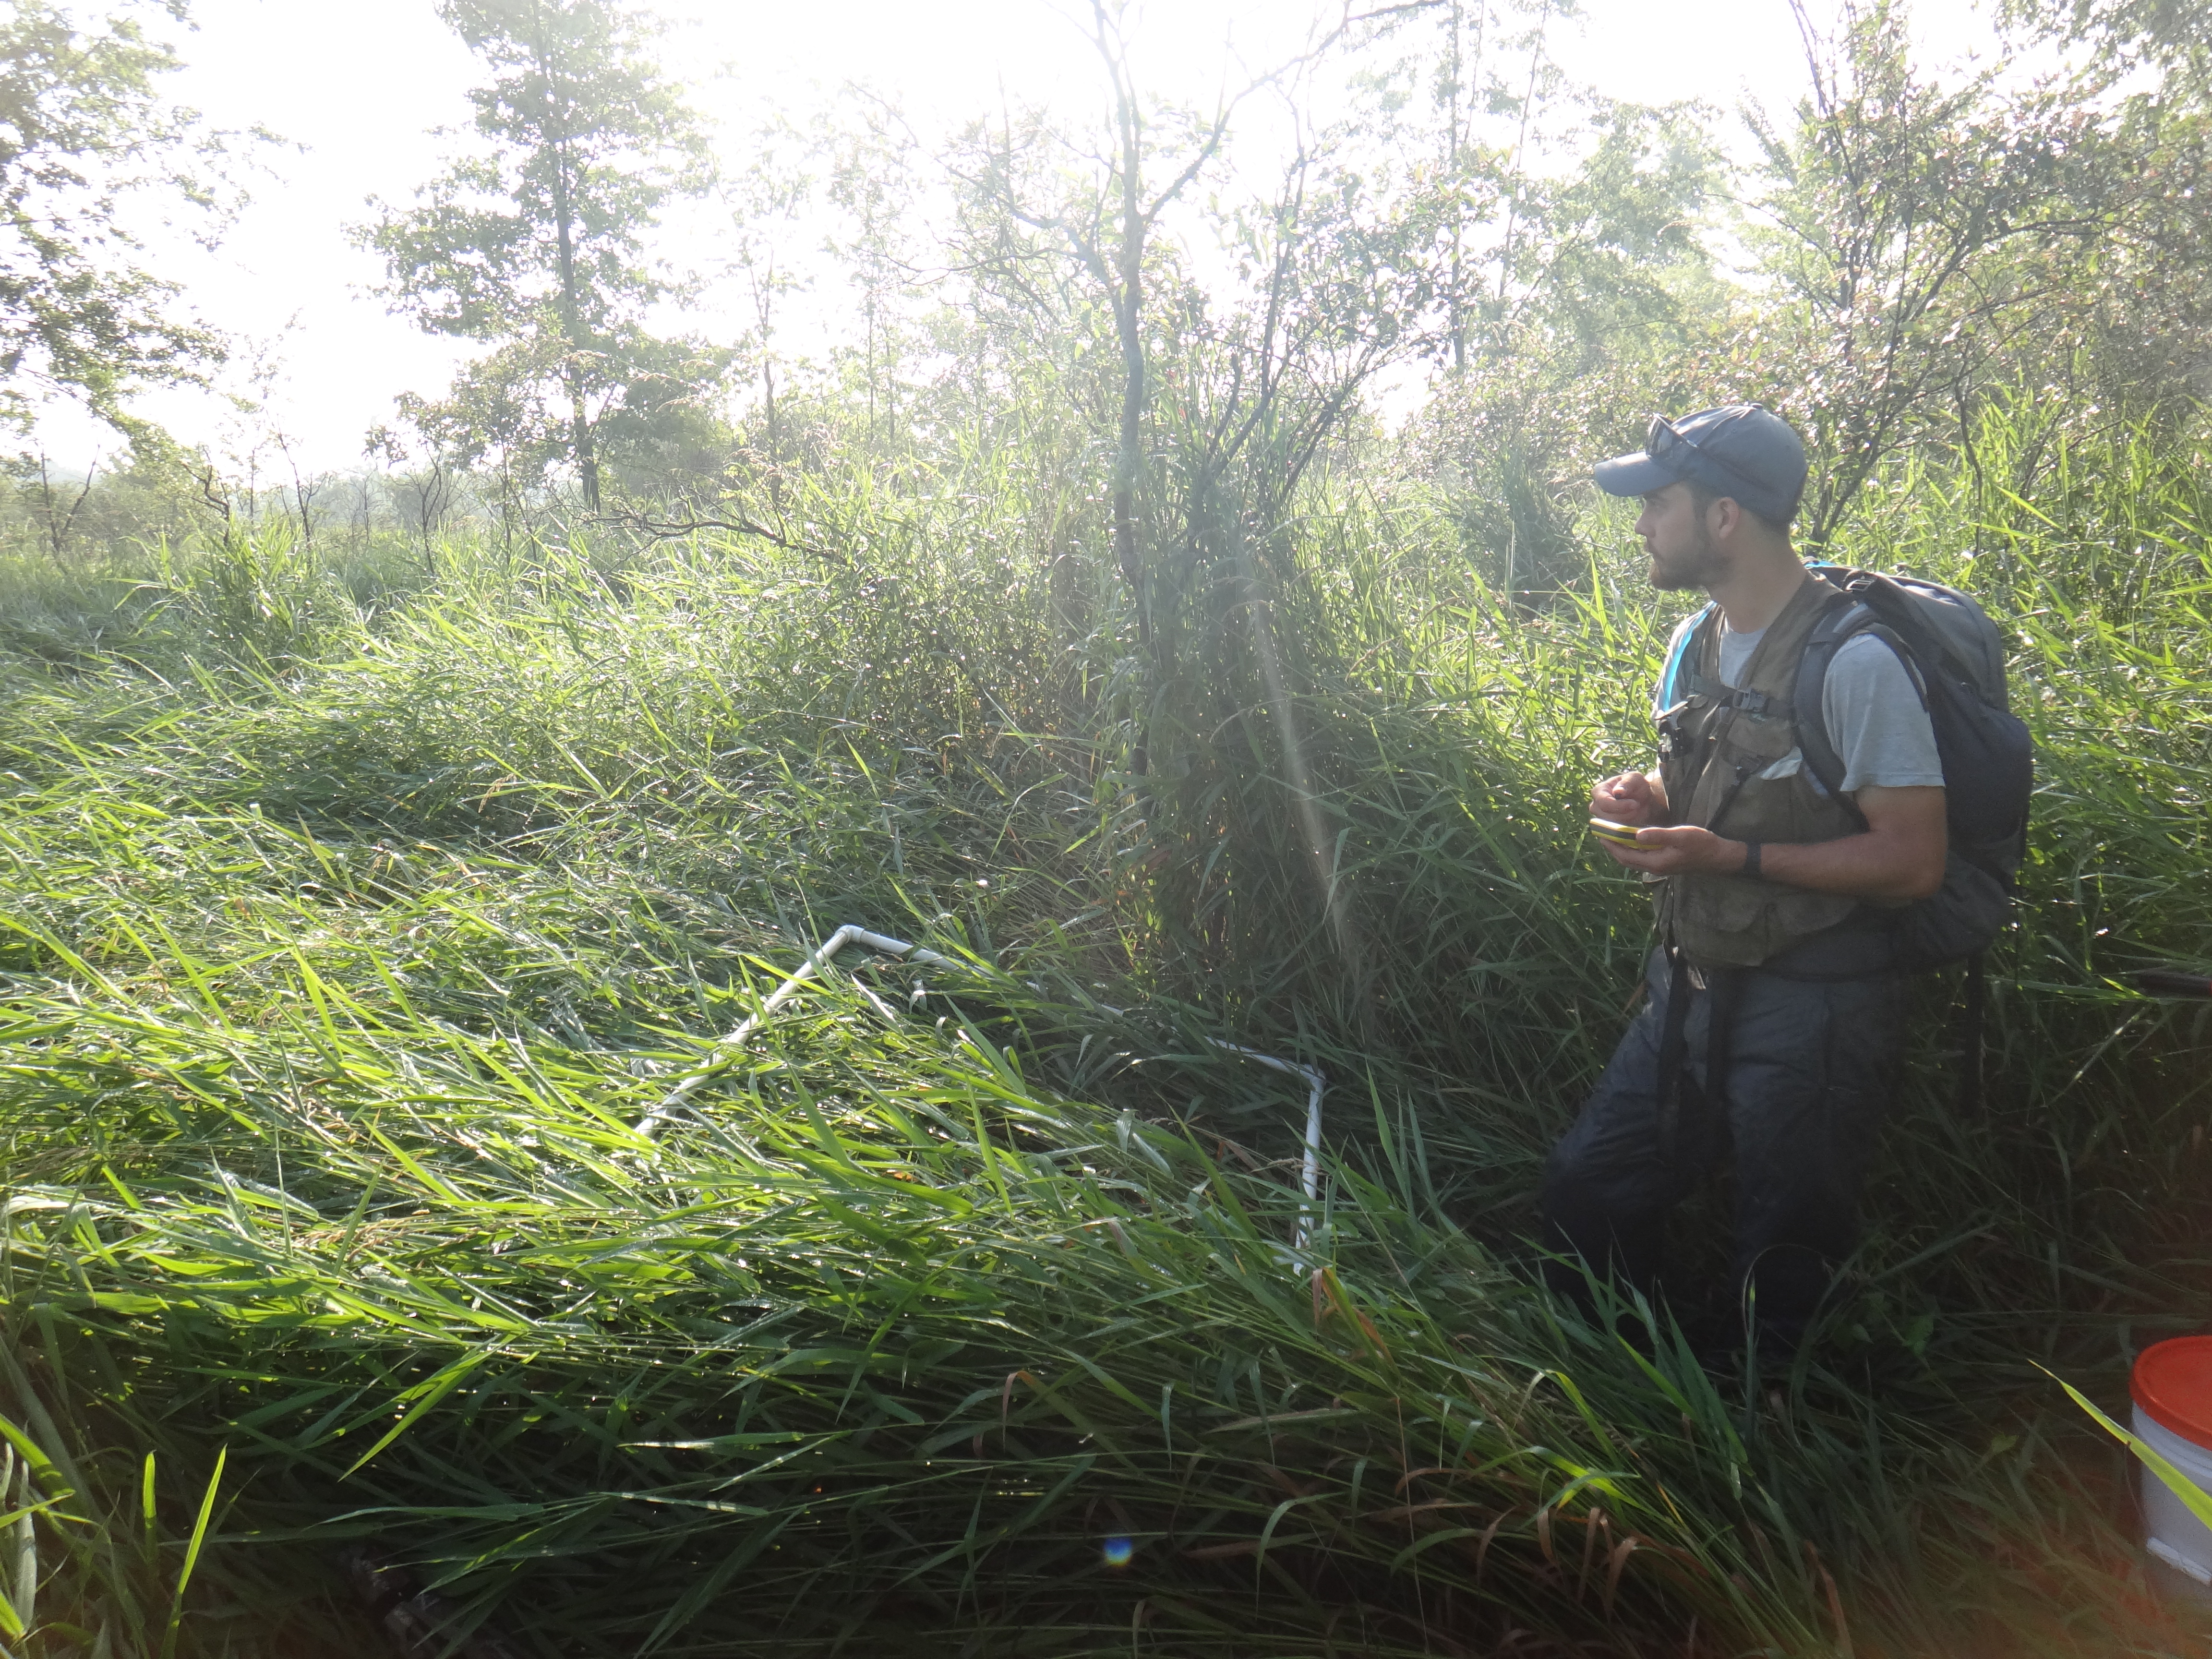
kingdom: Plantae
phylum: Tracheophyta
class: Liliopsida
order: Poales
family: Cyperaceae
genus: Carex
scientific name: Carex lacustris
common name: Common lake sedge
